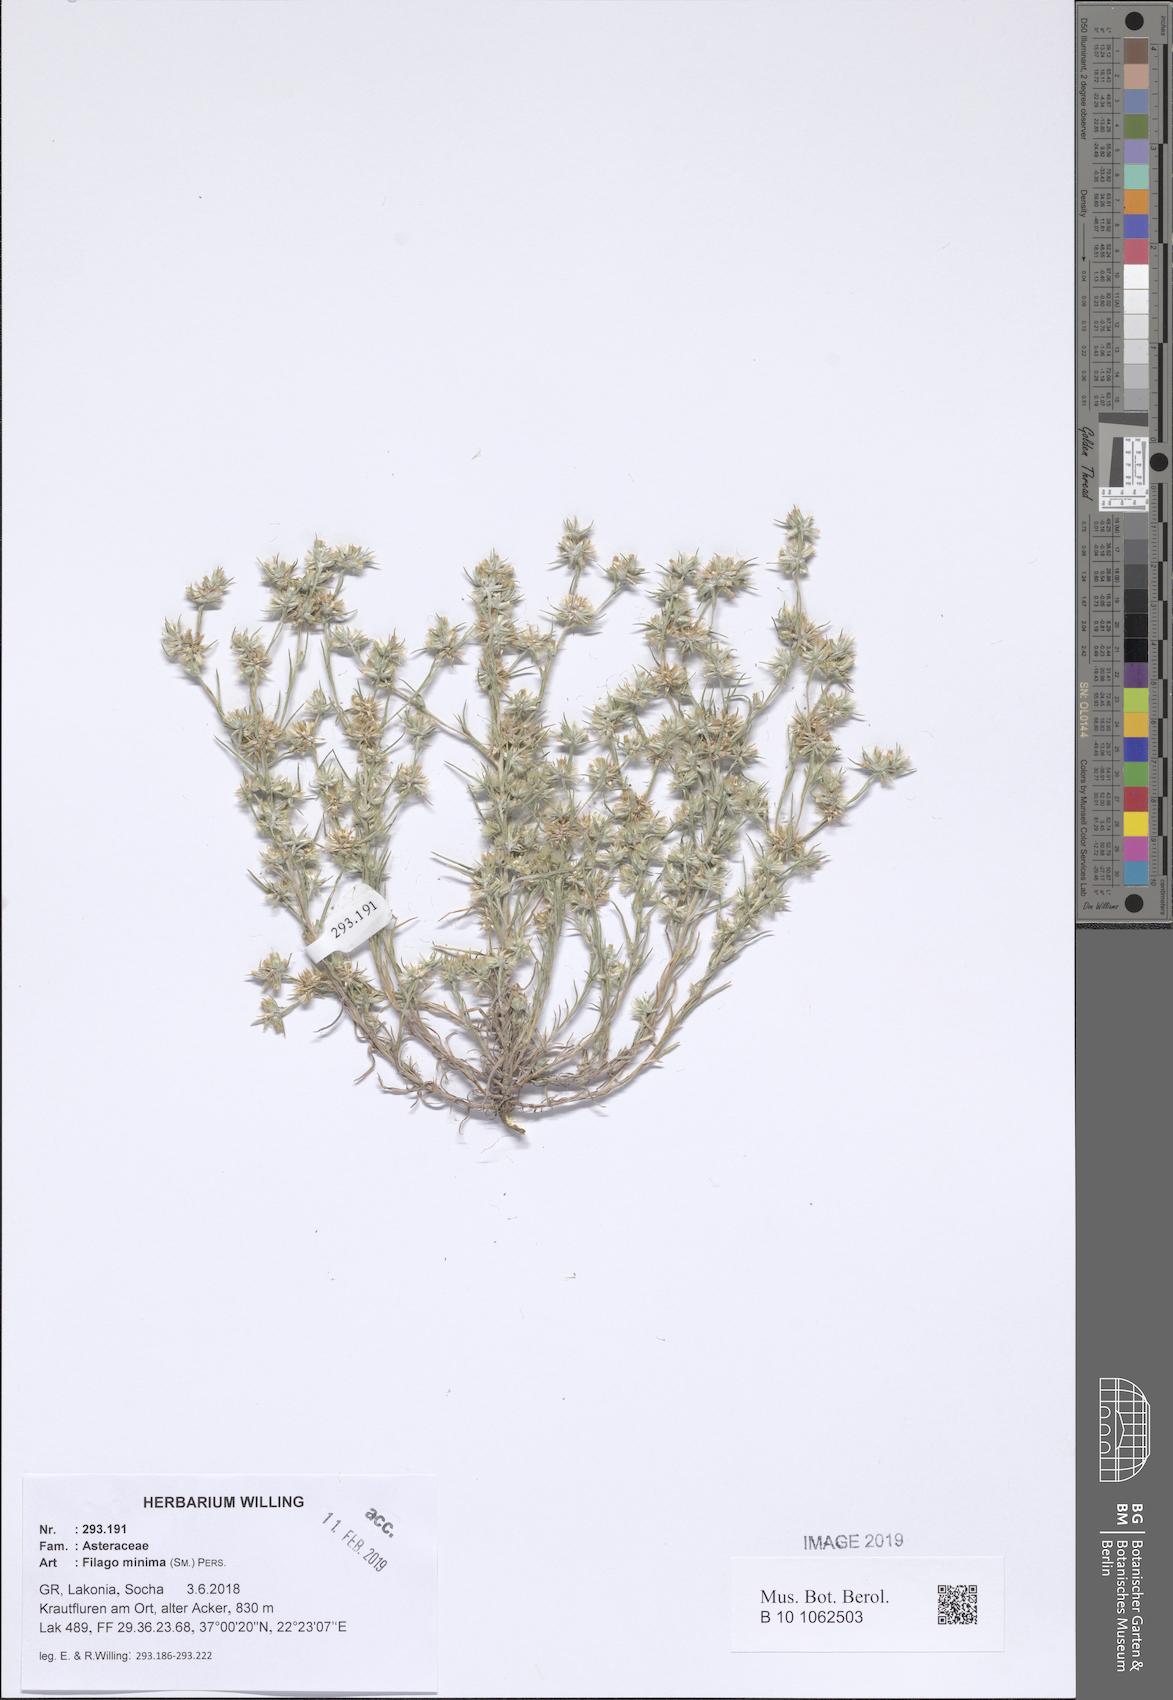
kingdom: Plantae
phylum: Tracheophyta
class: Magnoliopsida
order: Asterales
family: Asteraceae
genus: Logfia
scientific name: Logfia minima
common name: Little cottonrose
